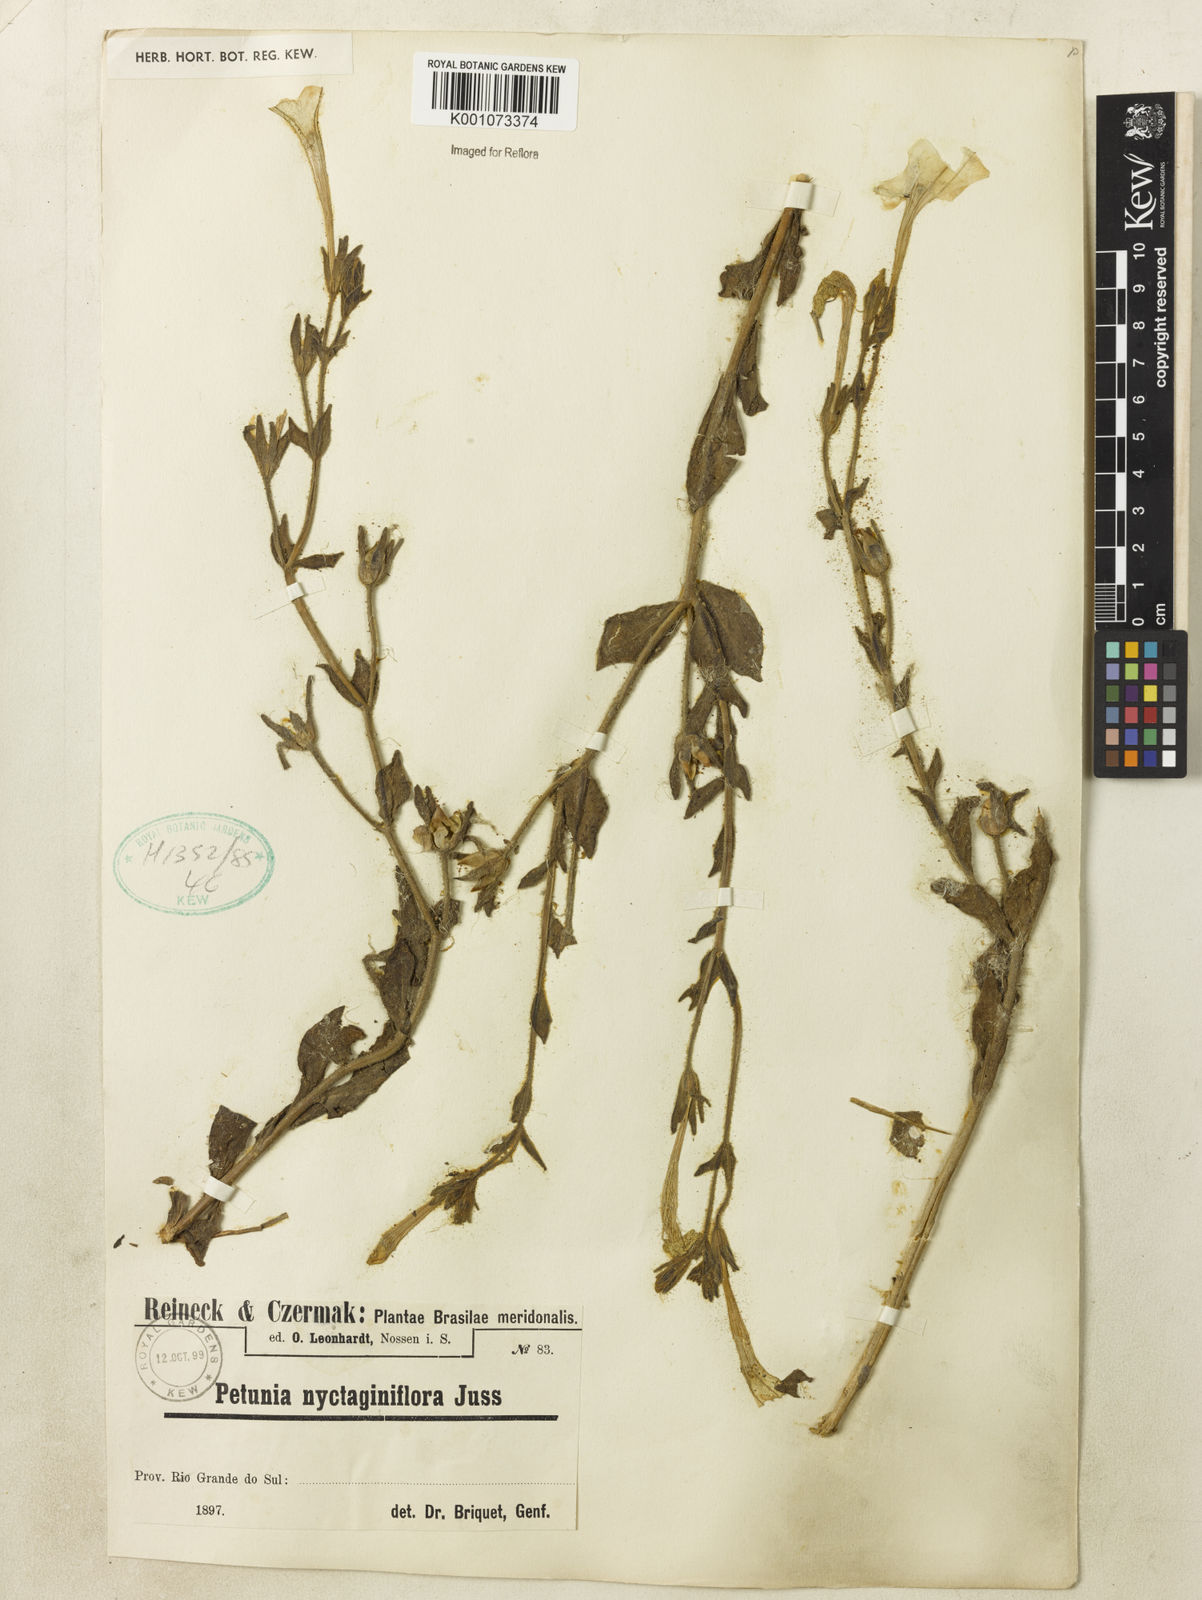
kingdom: Plantae
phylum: Tracheophyta
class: Magnoliopsida
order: Solanales
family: Solanaceae
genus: Petunia
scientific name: Petunia axillaris
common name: Large white petunia
